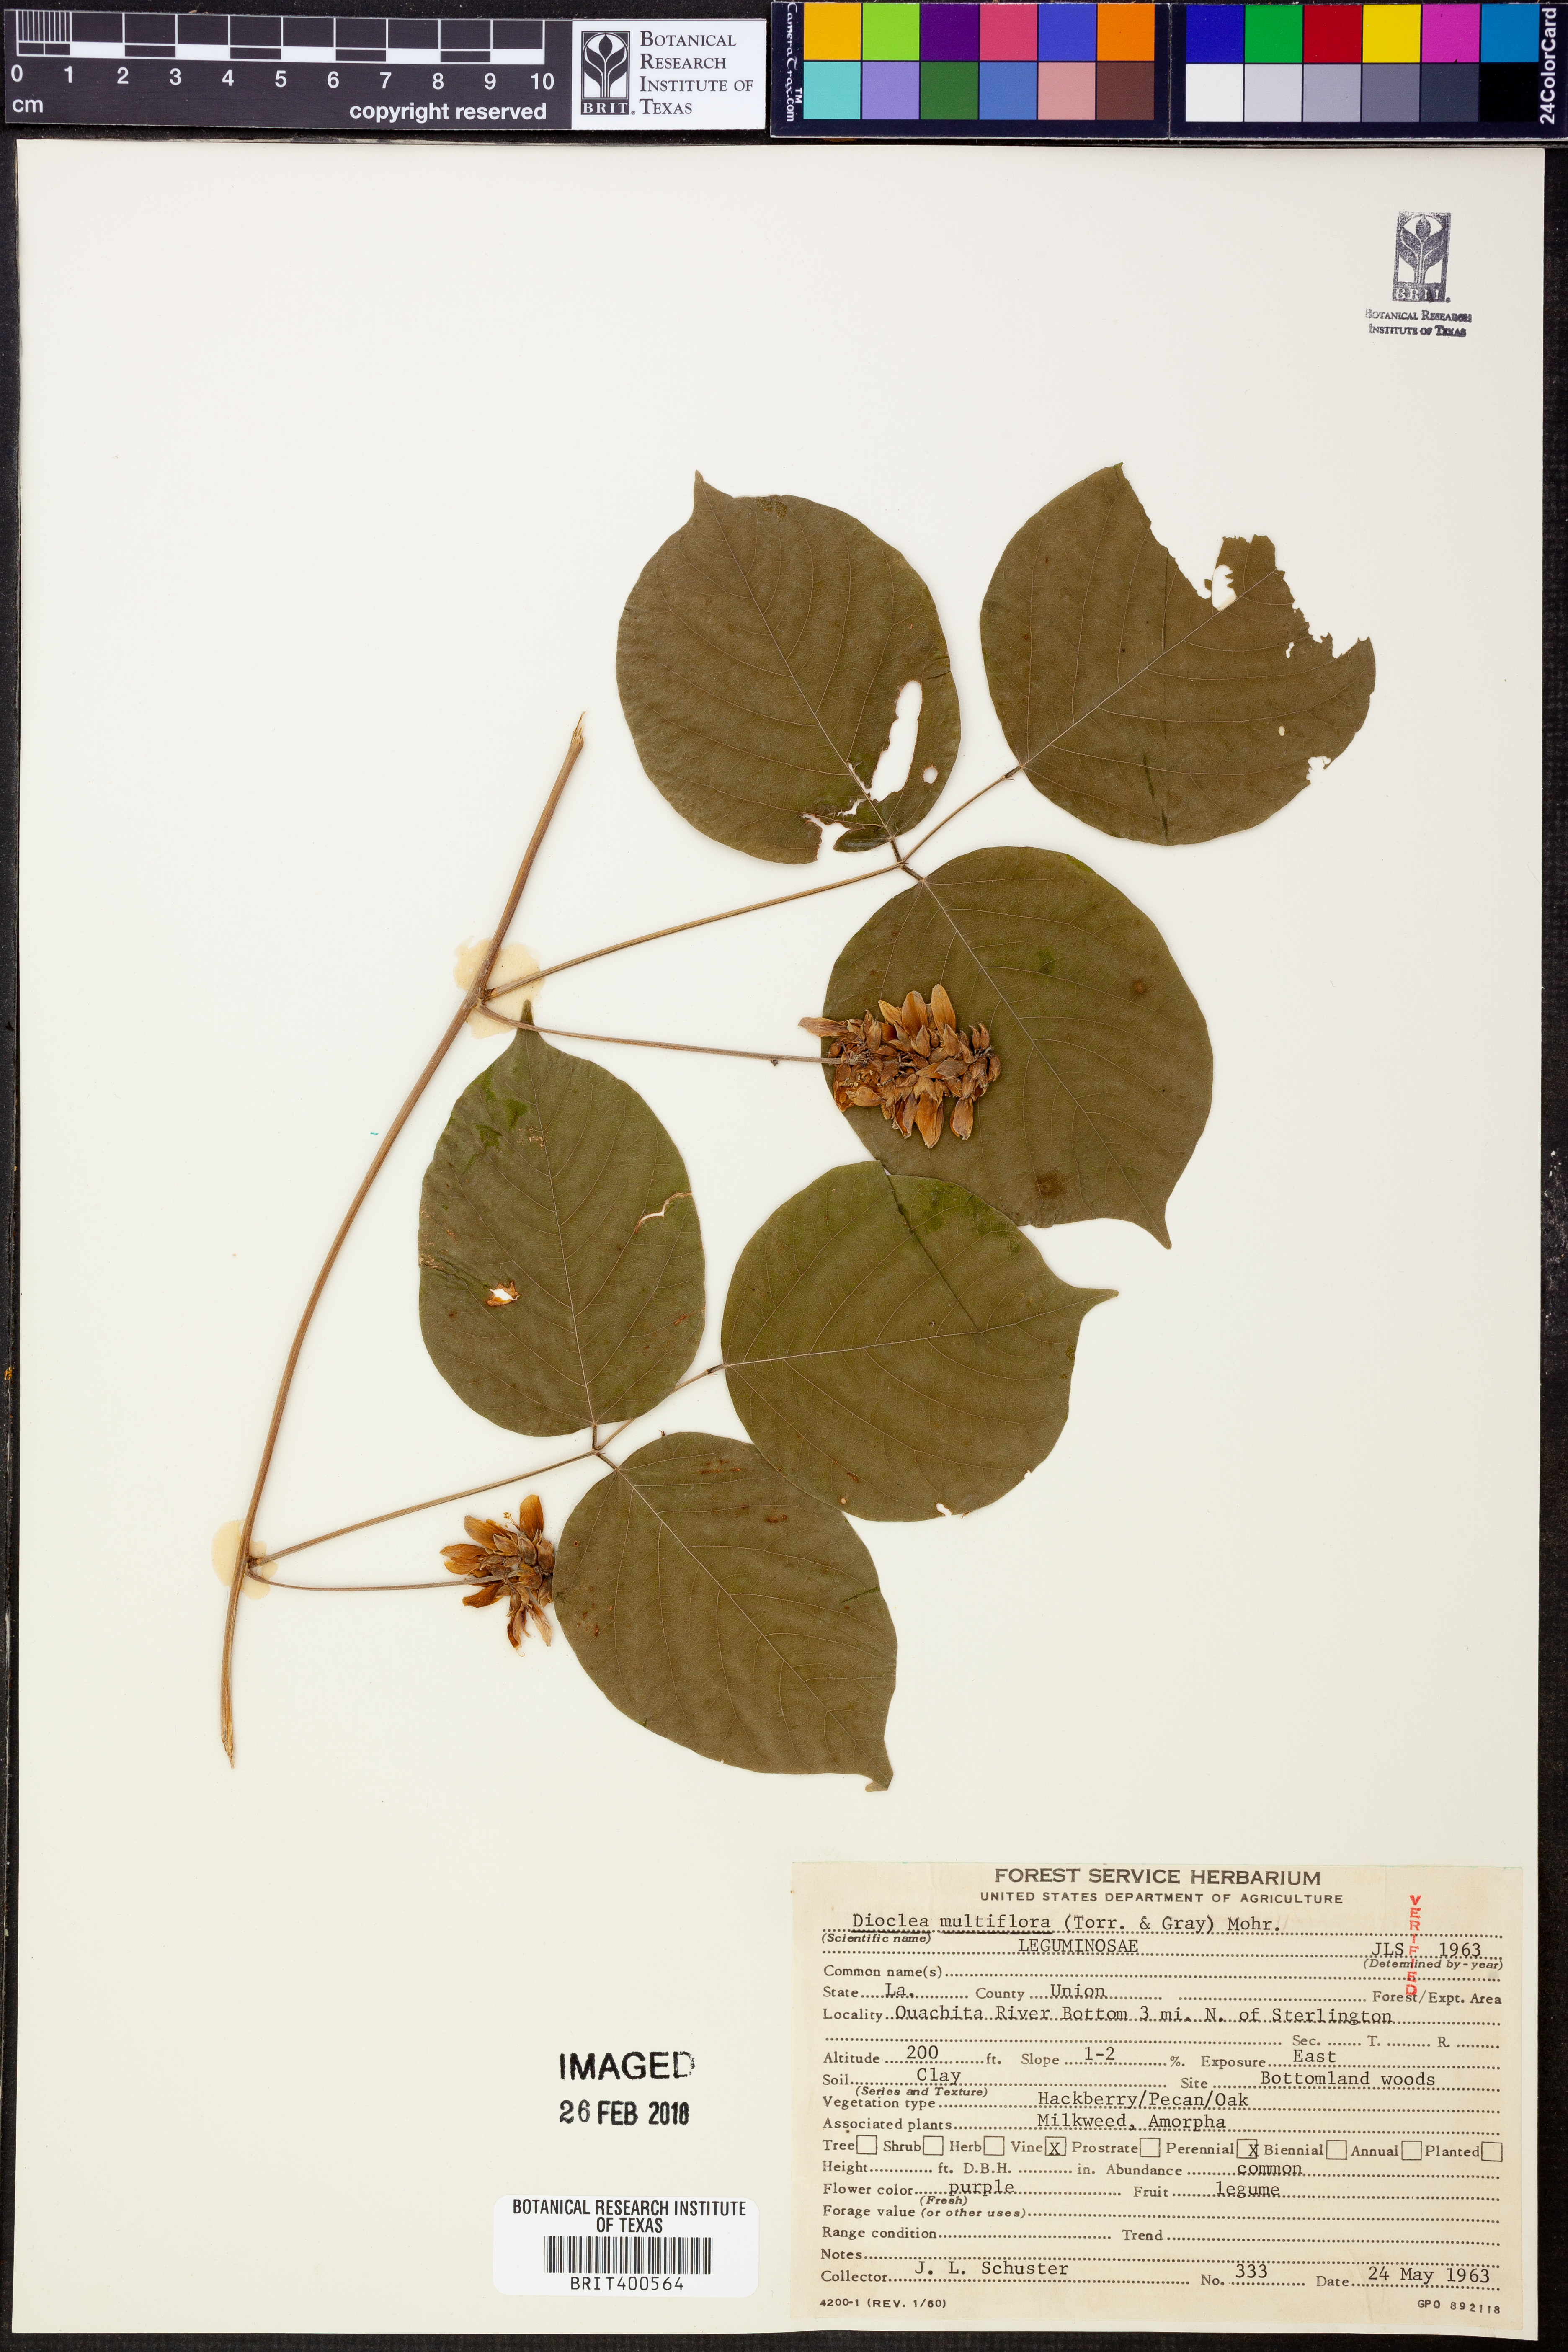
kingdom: Plantae
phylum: Tracheophyta
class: Magnoliopsida
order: Fabales
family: Fabaceae
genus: Lackeya
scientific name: Lackeya multiflora
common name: Boykin's clusterpea
